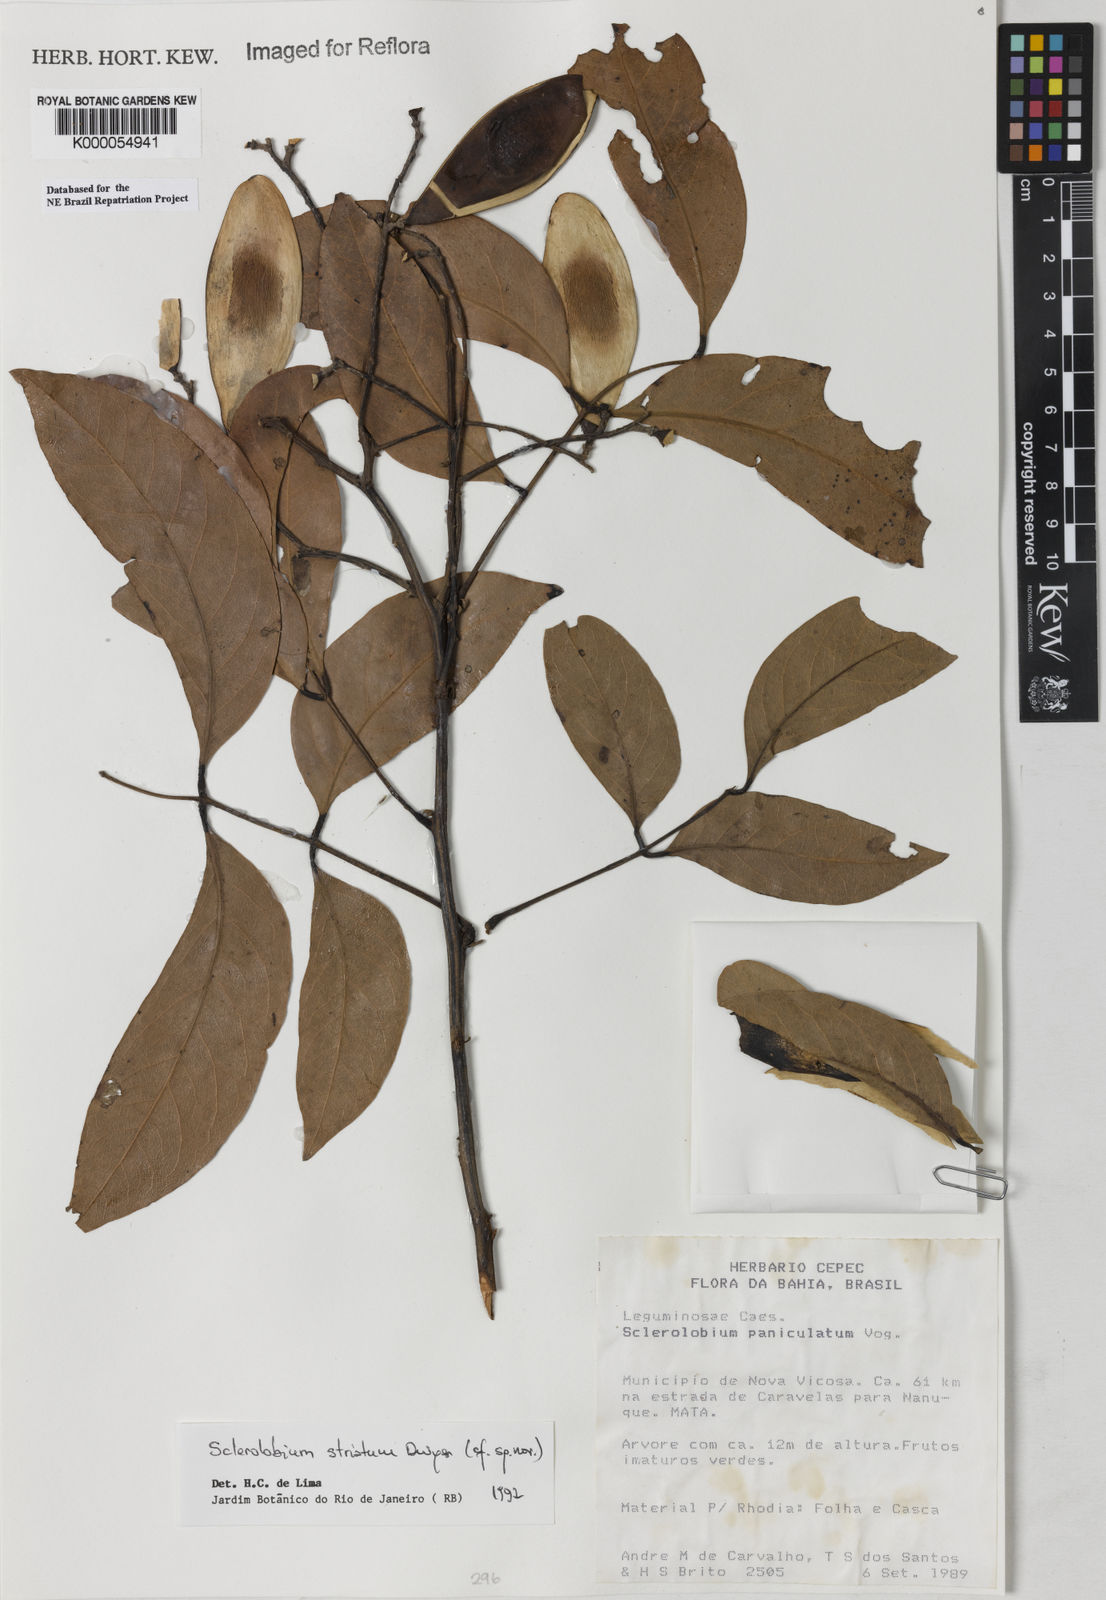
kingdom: Plantae
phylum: Tracheophyta
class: Magnoliopsida
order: Fabales
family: Fabaceae
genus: Tachigali
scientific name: Tachigali pilgeriana
